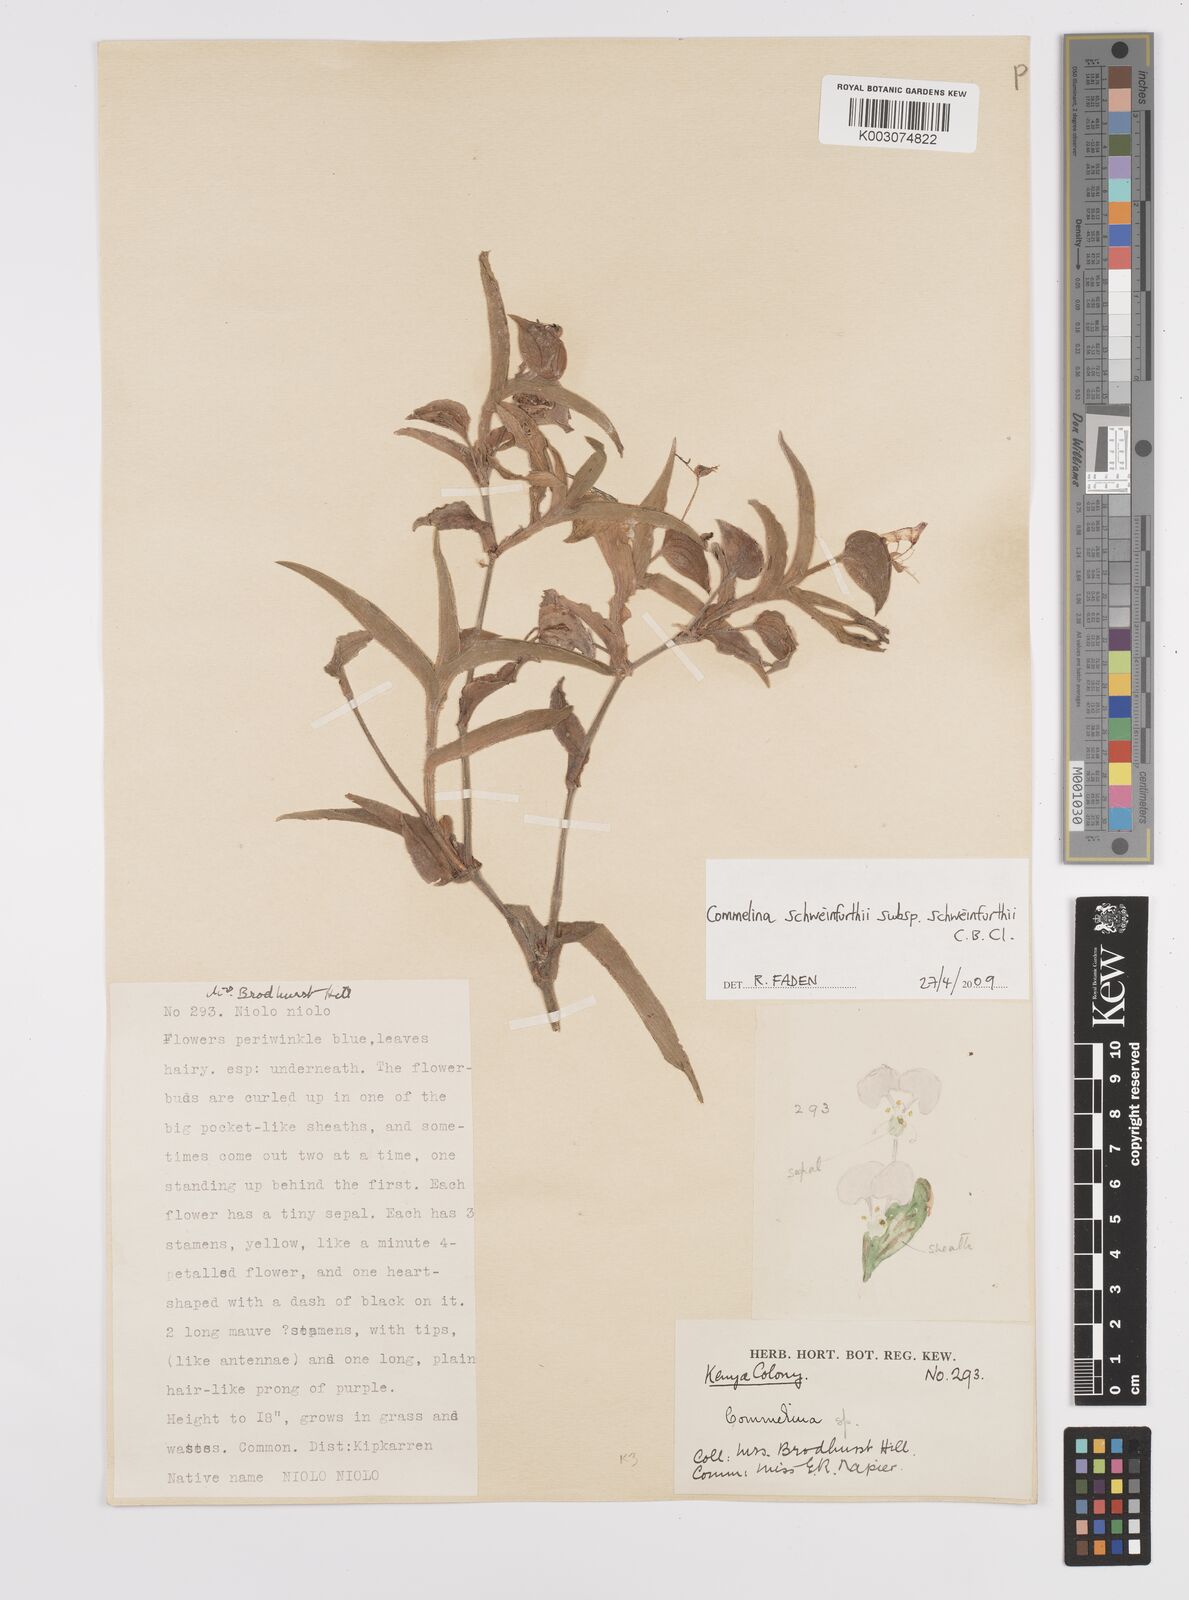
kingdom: Plantae
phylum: Tracheophyta
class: Liliopsida
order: Commelinales
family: Commelinaceae
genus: Commelina
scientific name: Commelina schweinfurthii
